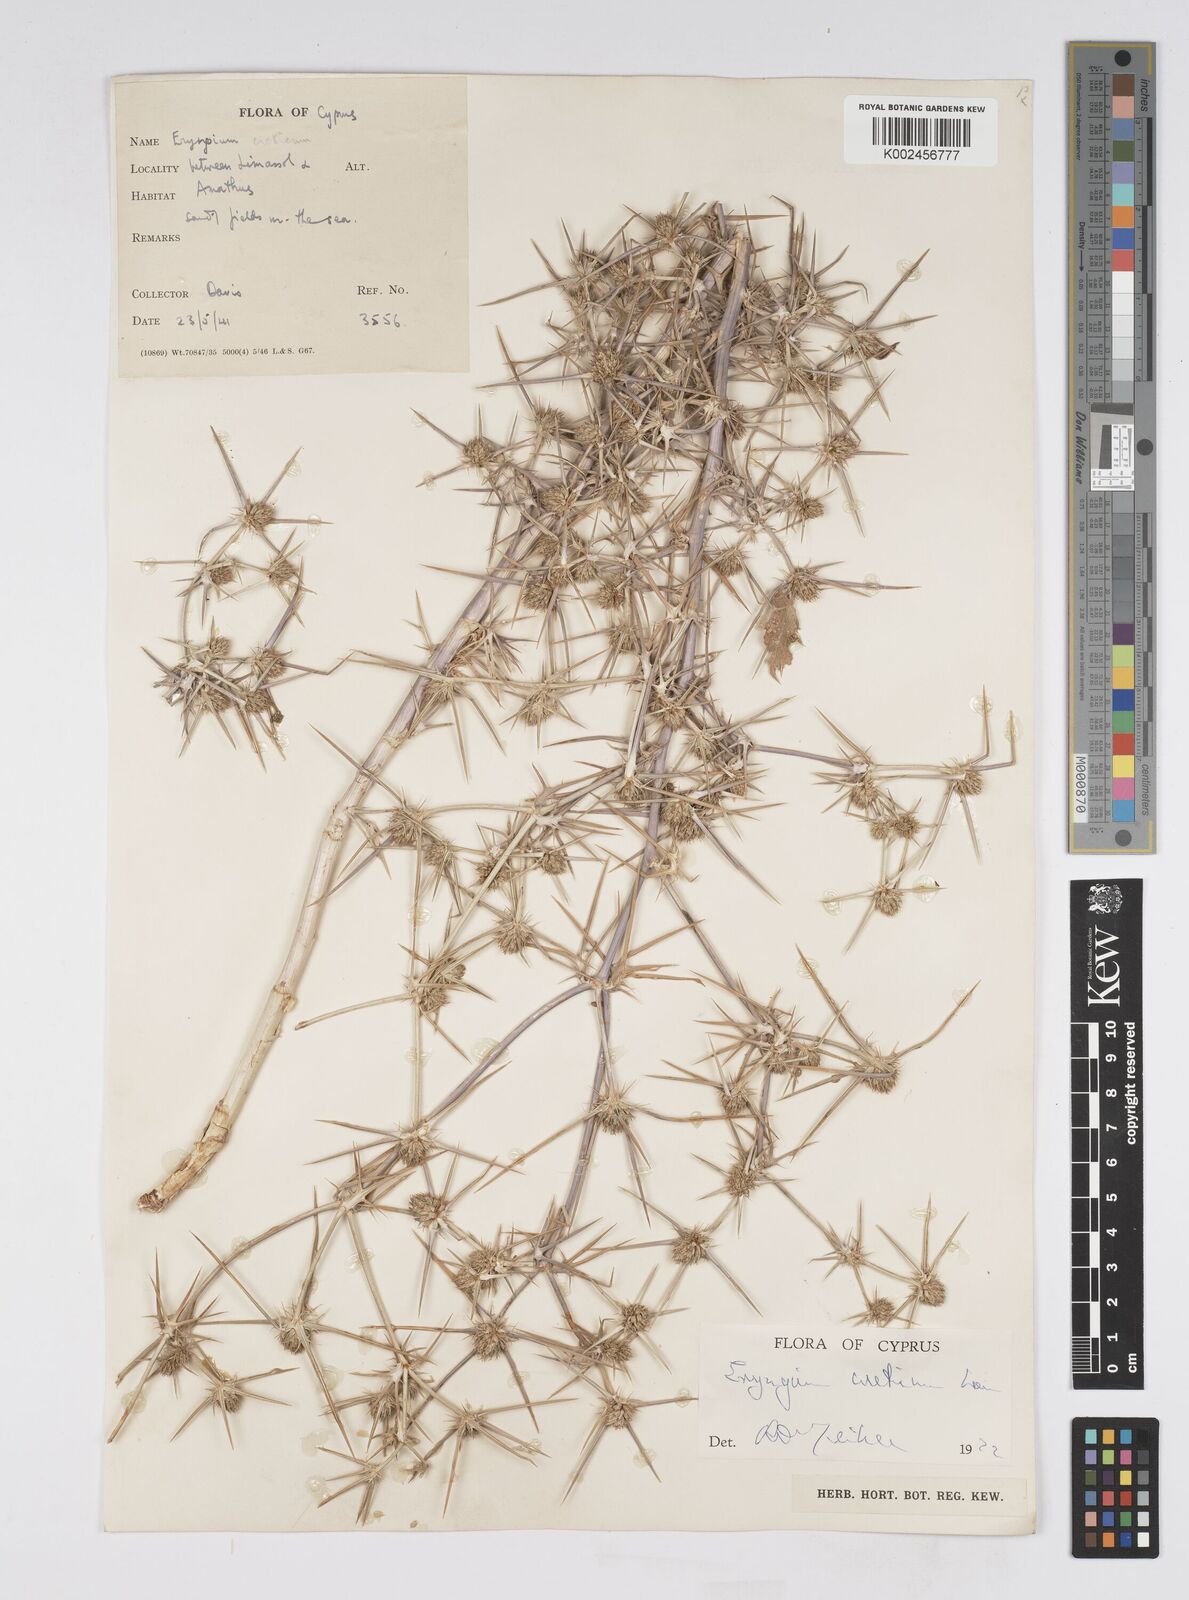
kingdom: Plantae
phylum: Tracheophyta
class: Magnoliopsida
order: Apiales
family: Apiaceae
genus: Eryngium
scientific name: Eryngium creticum
